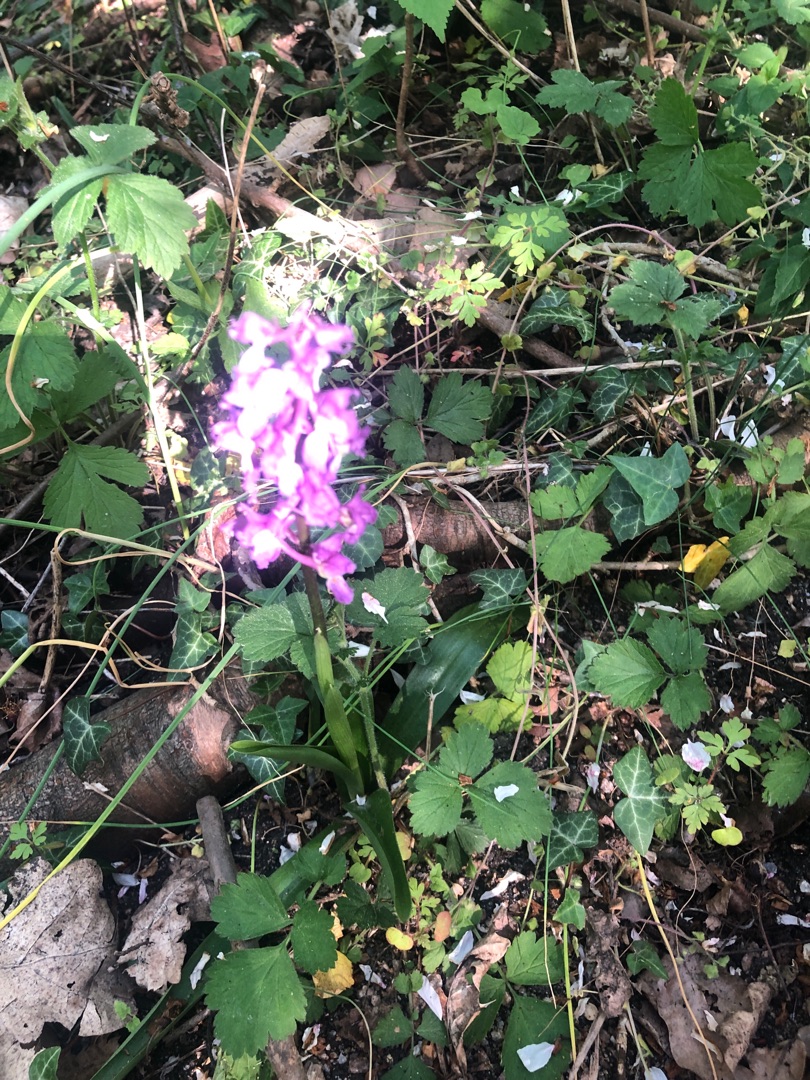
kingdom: Plantae
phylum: Tracheophyta
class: Liliopsida
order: Asparagales
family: Orchidaceae
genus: Orchis
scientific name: Orchis mascula
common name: Tyndakset gøgeurt
